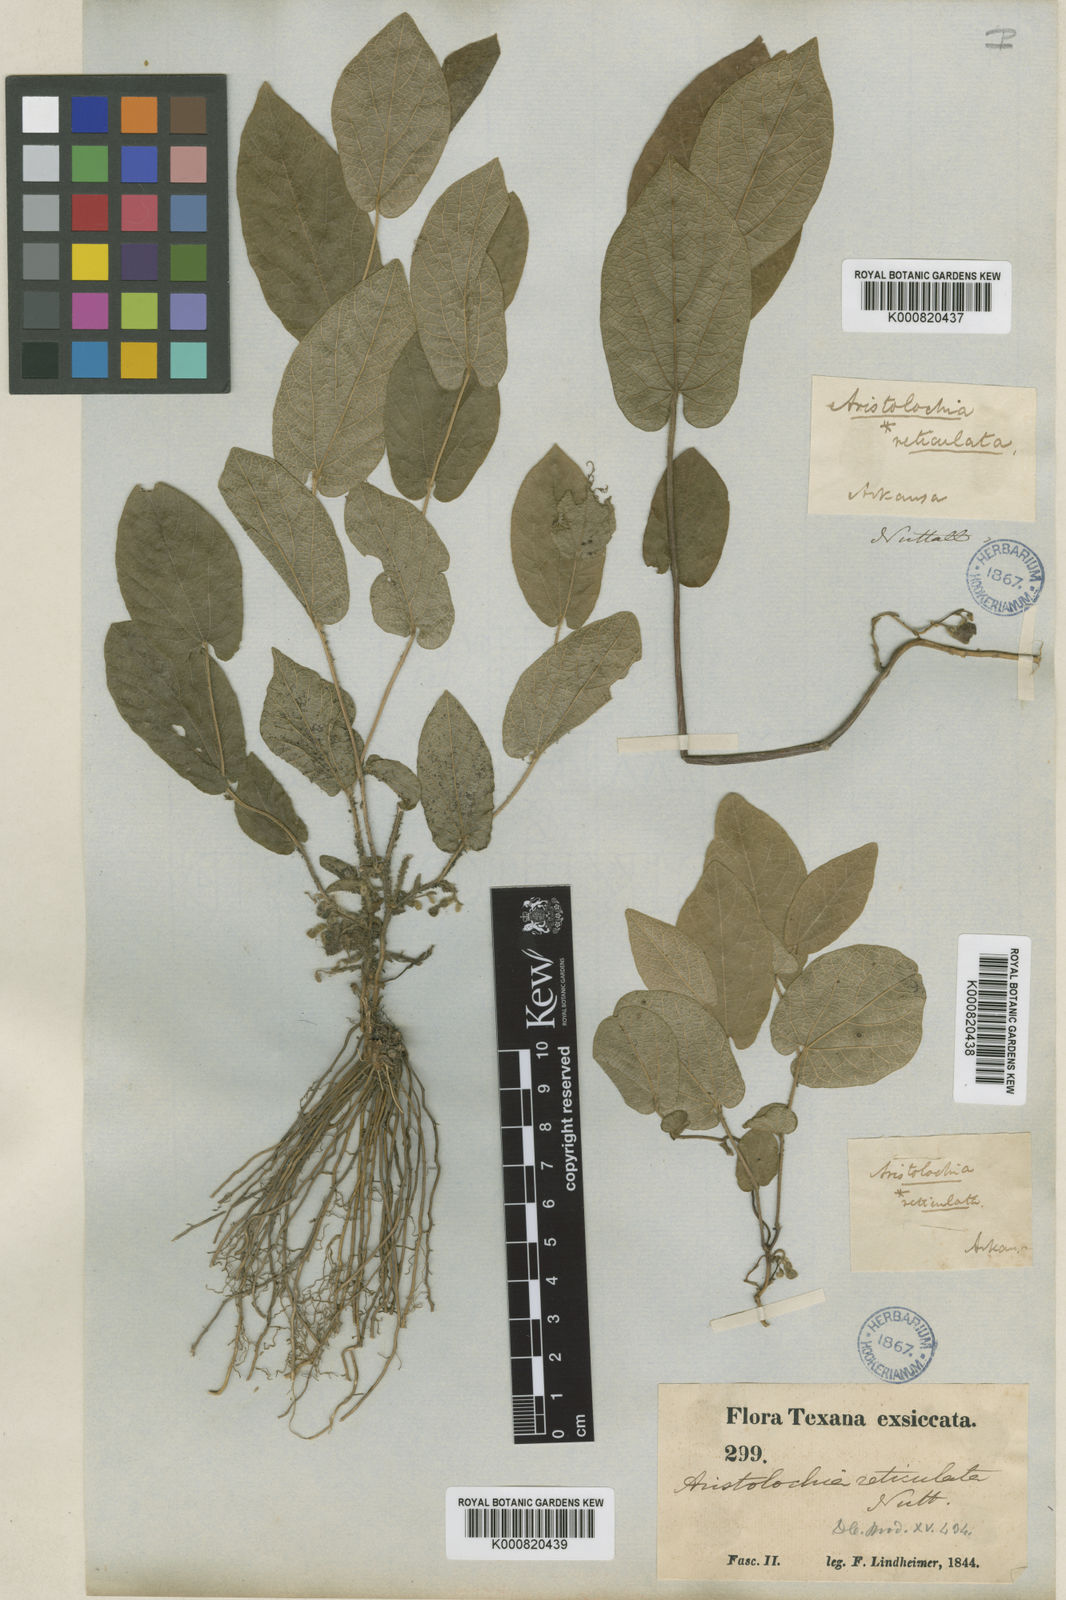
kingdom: Plantae
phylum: Tracheophyta
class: Magnoliopsida
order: Piperales
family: Aristolochiaceae
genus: Endodeca
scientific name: Endodeca reticulata
